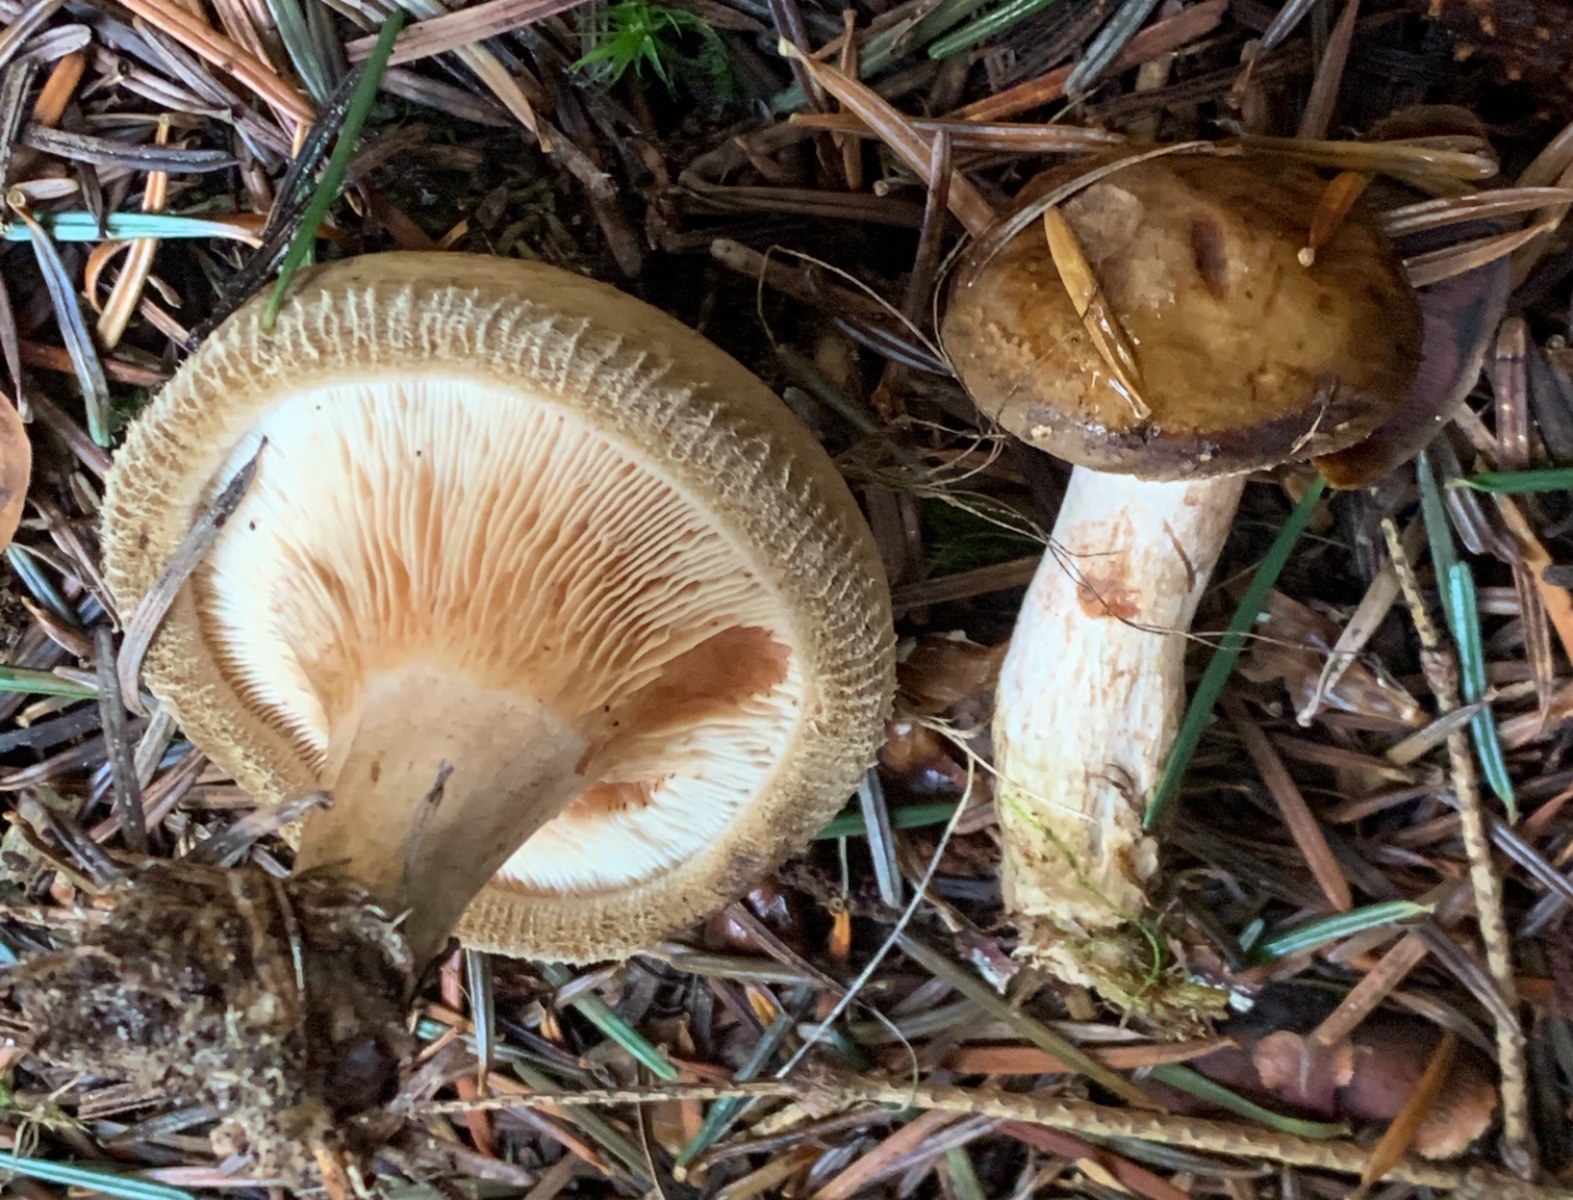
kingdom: Fungi
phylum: Basidiomycota
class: Agaricomycetes
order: Boletales
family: Paxillaceae
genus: Paxillus
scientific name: Paxillus involutus
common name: almindelig netbladhat
